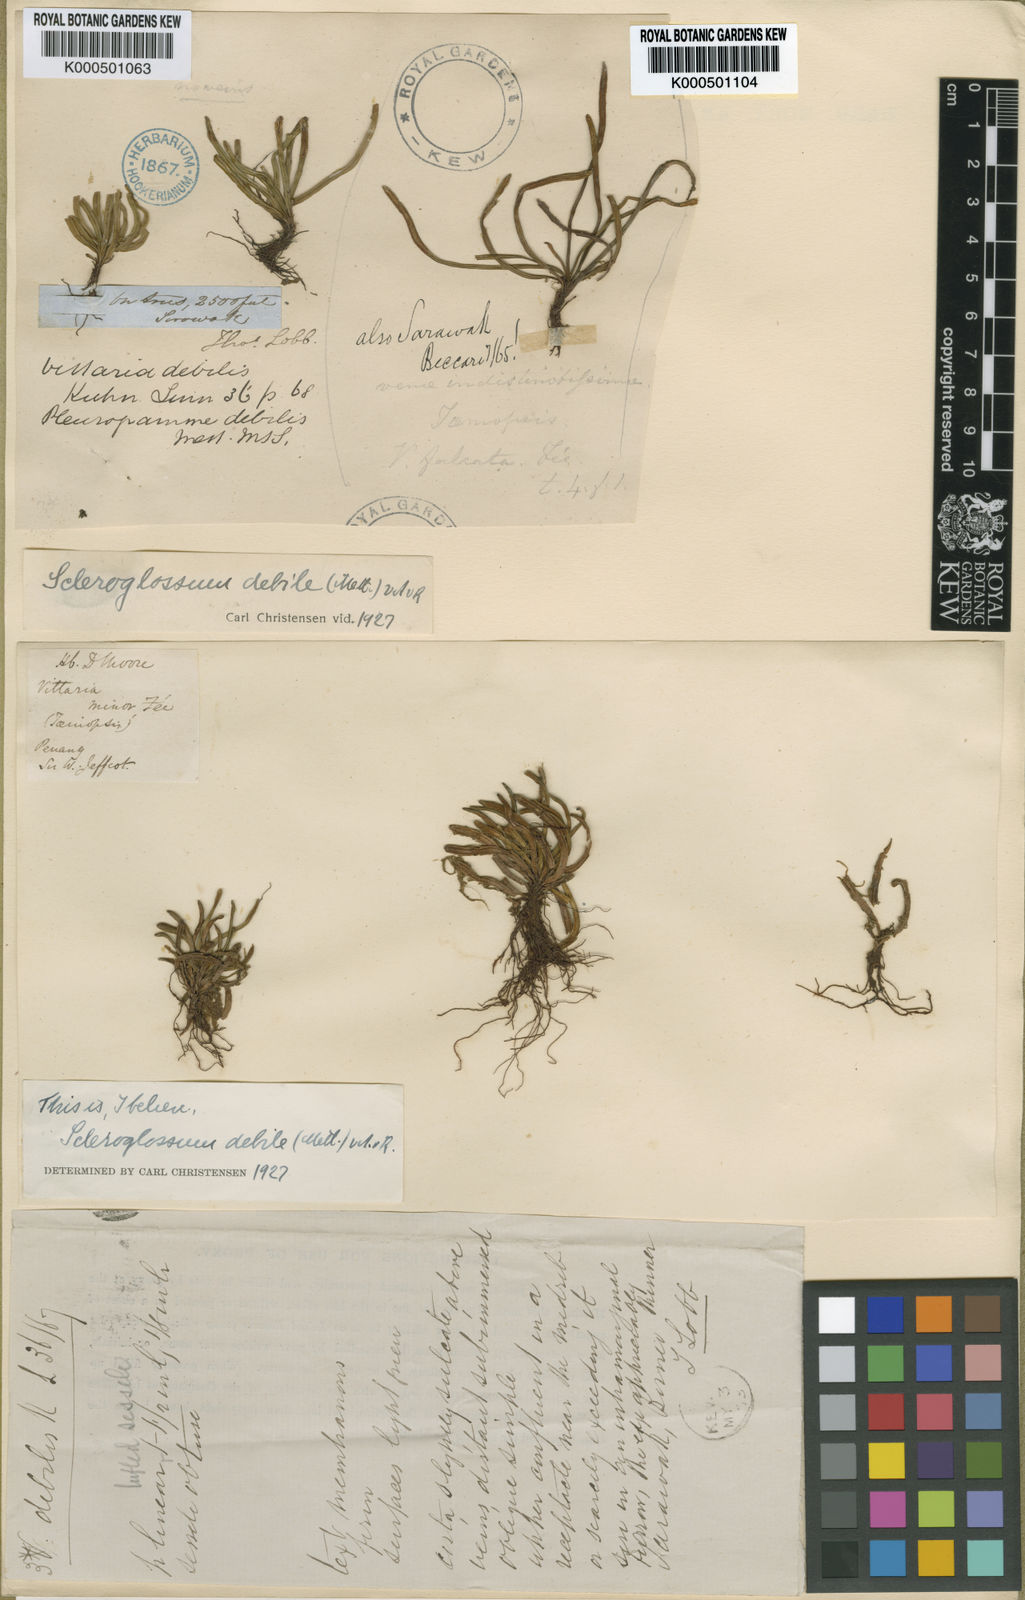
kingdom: Plantae
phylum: Tracheophyta
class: Polypodiopsida
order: Polypodiales
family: Polypodiaceae
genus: Scleroglossum
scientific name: Scleroglossum debile
